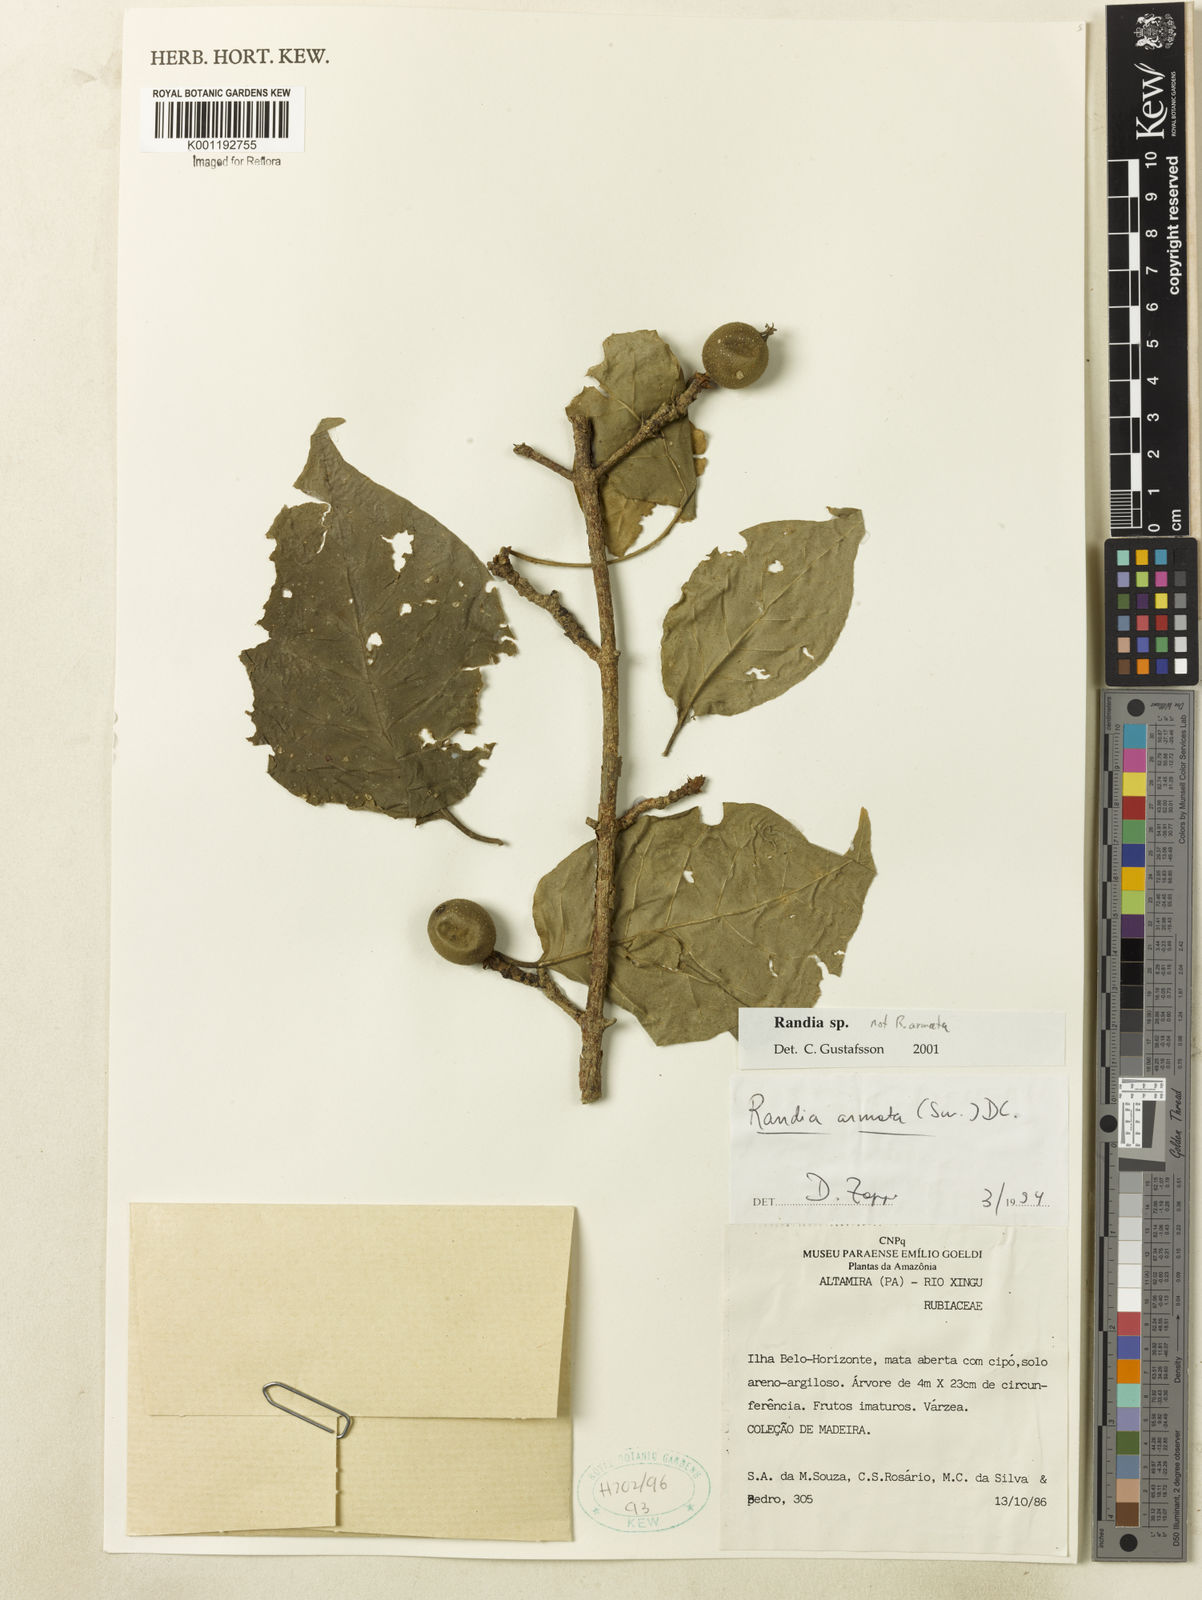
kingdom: Plantae
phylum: Tracheophyta
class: Magnoliopsida
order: Gentianales
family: Rubiaceae
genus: Randia
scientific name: Randia
